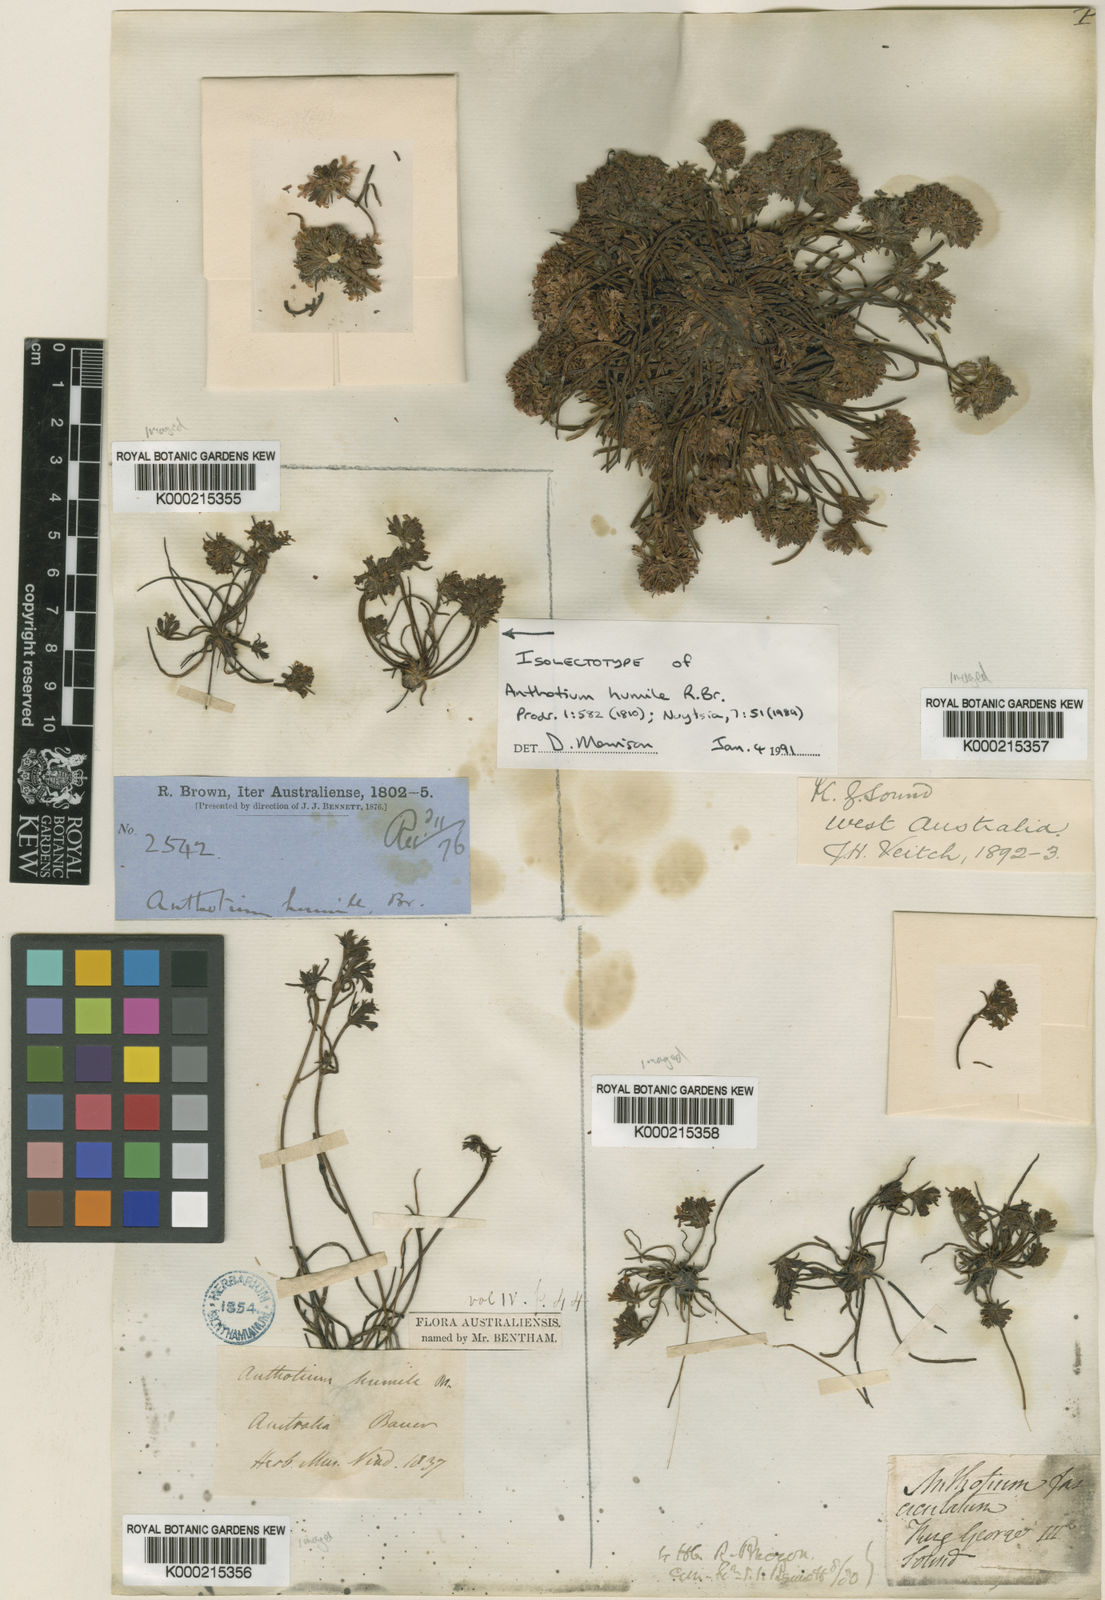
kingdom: Plantae
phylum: Tracheophyta
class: Magnoliopsida
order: Asterales
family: Goodeniaceae
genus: Anthotium
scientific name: Anthotium humile
